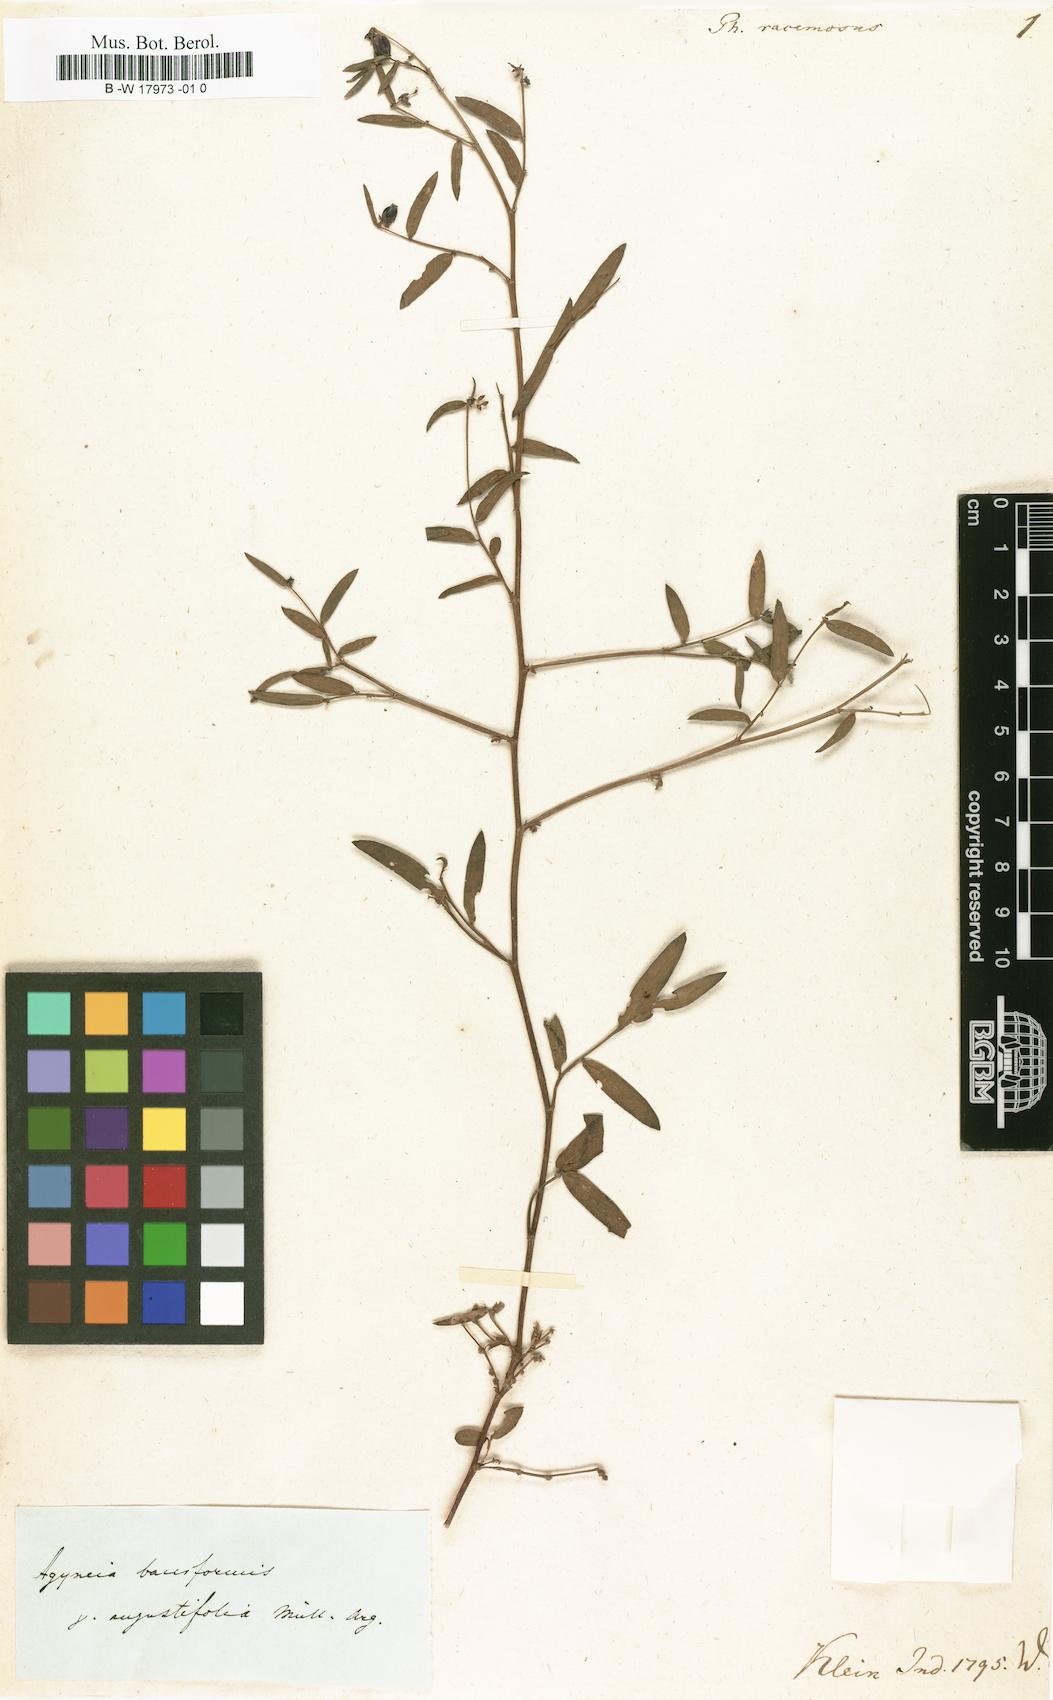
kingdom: Plantae
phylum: Tracheophyta
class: Magnoliopsida
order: Malpighiales
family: Phyllanthaceae
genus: Phyllanthus
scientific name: Phyllanthus racemosus
